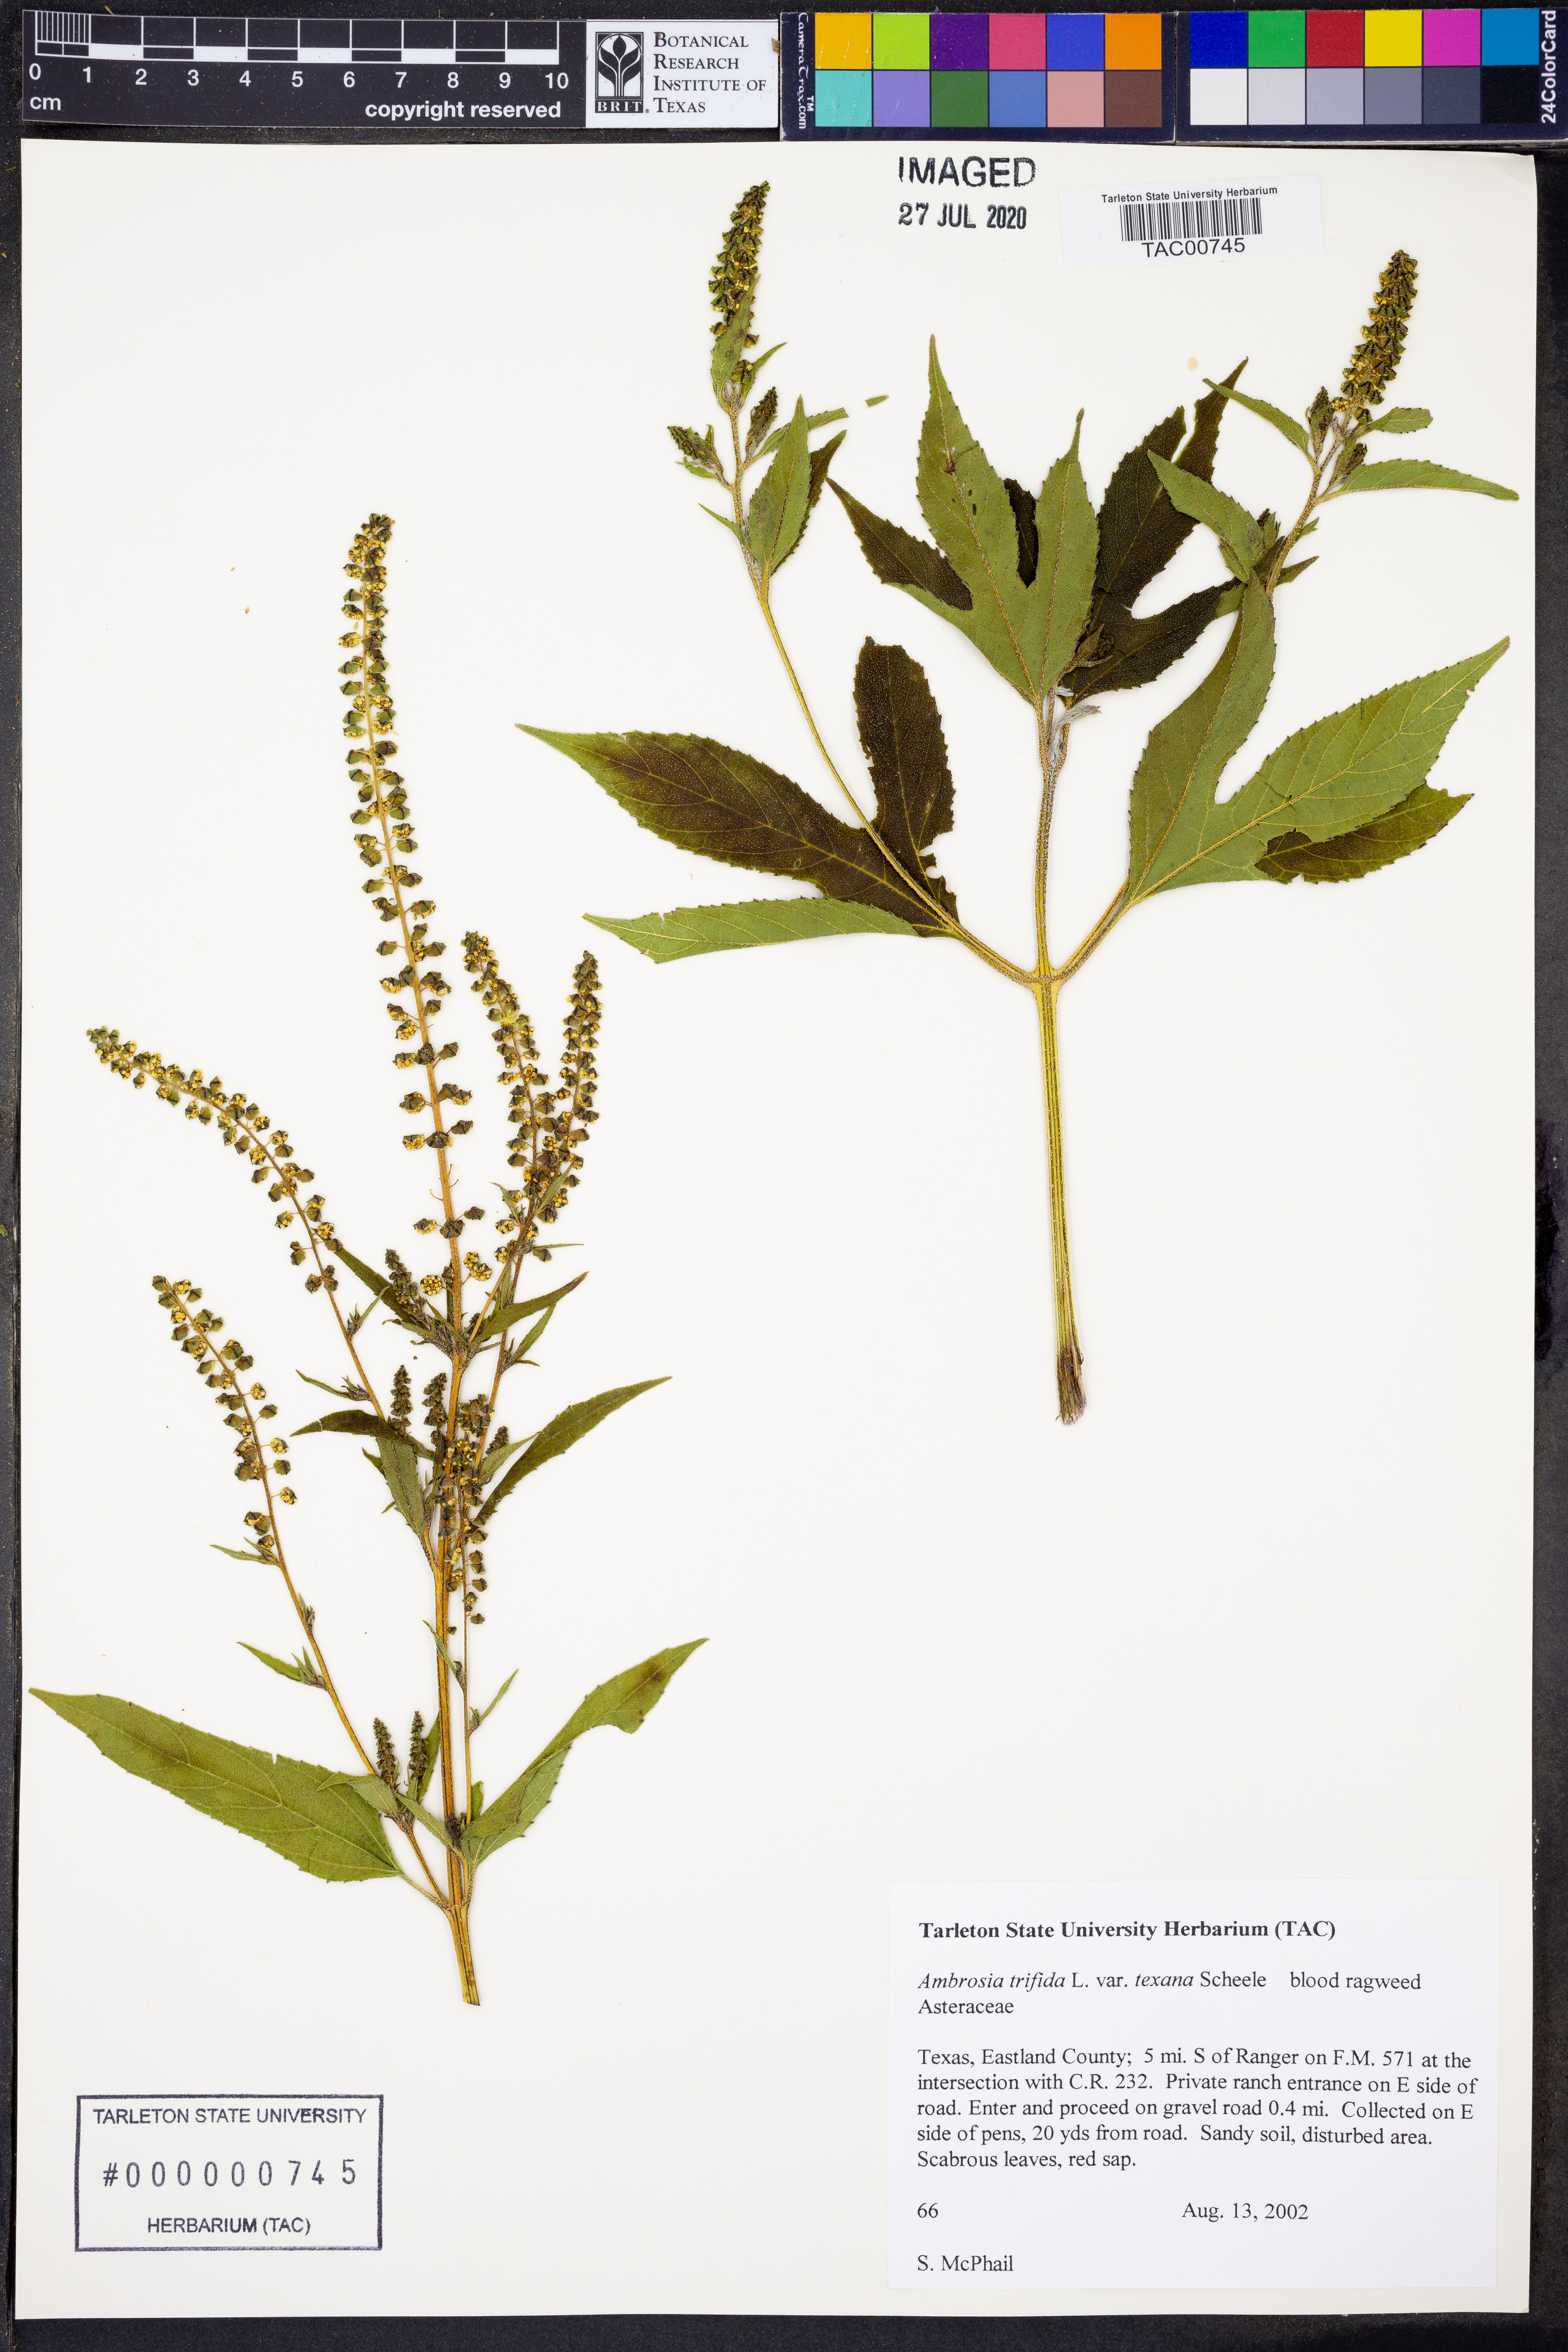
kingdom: Plantae
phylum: Tracheophyta
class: Magnoliopsida
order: Asterales
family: Asteraceae
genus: Ambrosia
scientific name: Ambrosia trifida
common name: Giant ragweed
